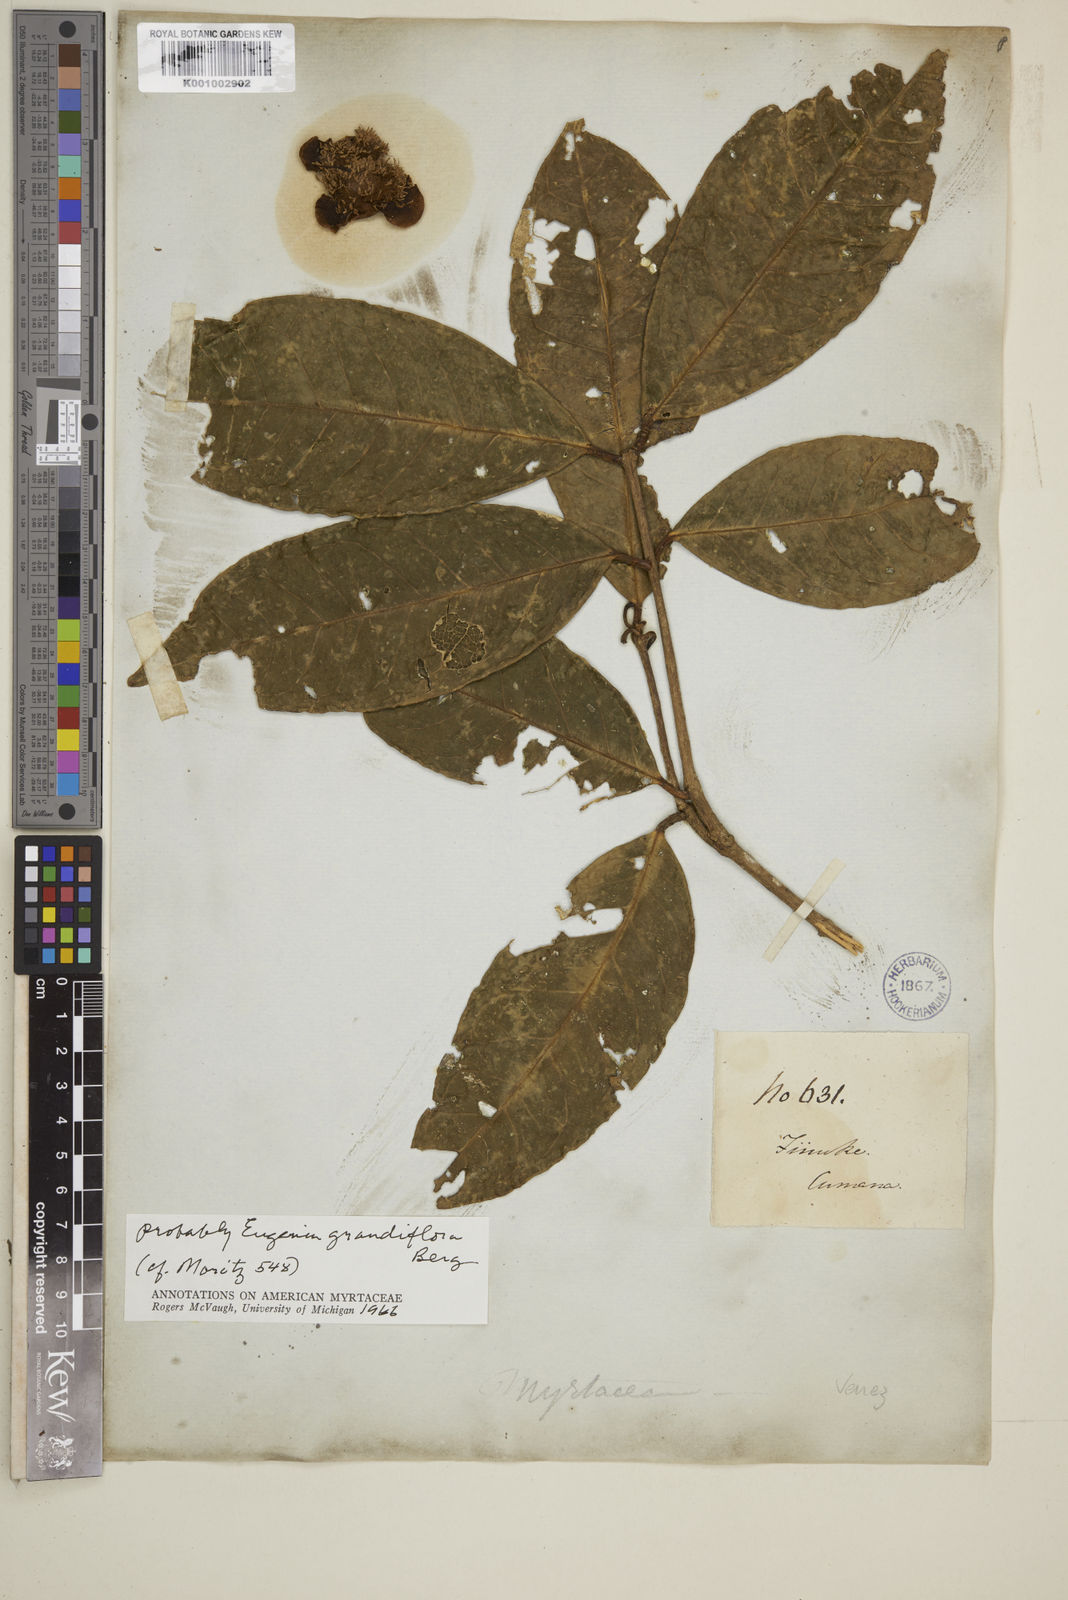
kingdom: Plantae
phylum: Tracheophyta
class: Magnoliopsida
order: Myrtales
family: Myrtaceae
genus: Eugenia
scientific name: Eugenia grandiflora
